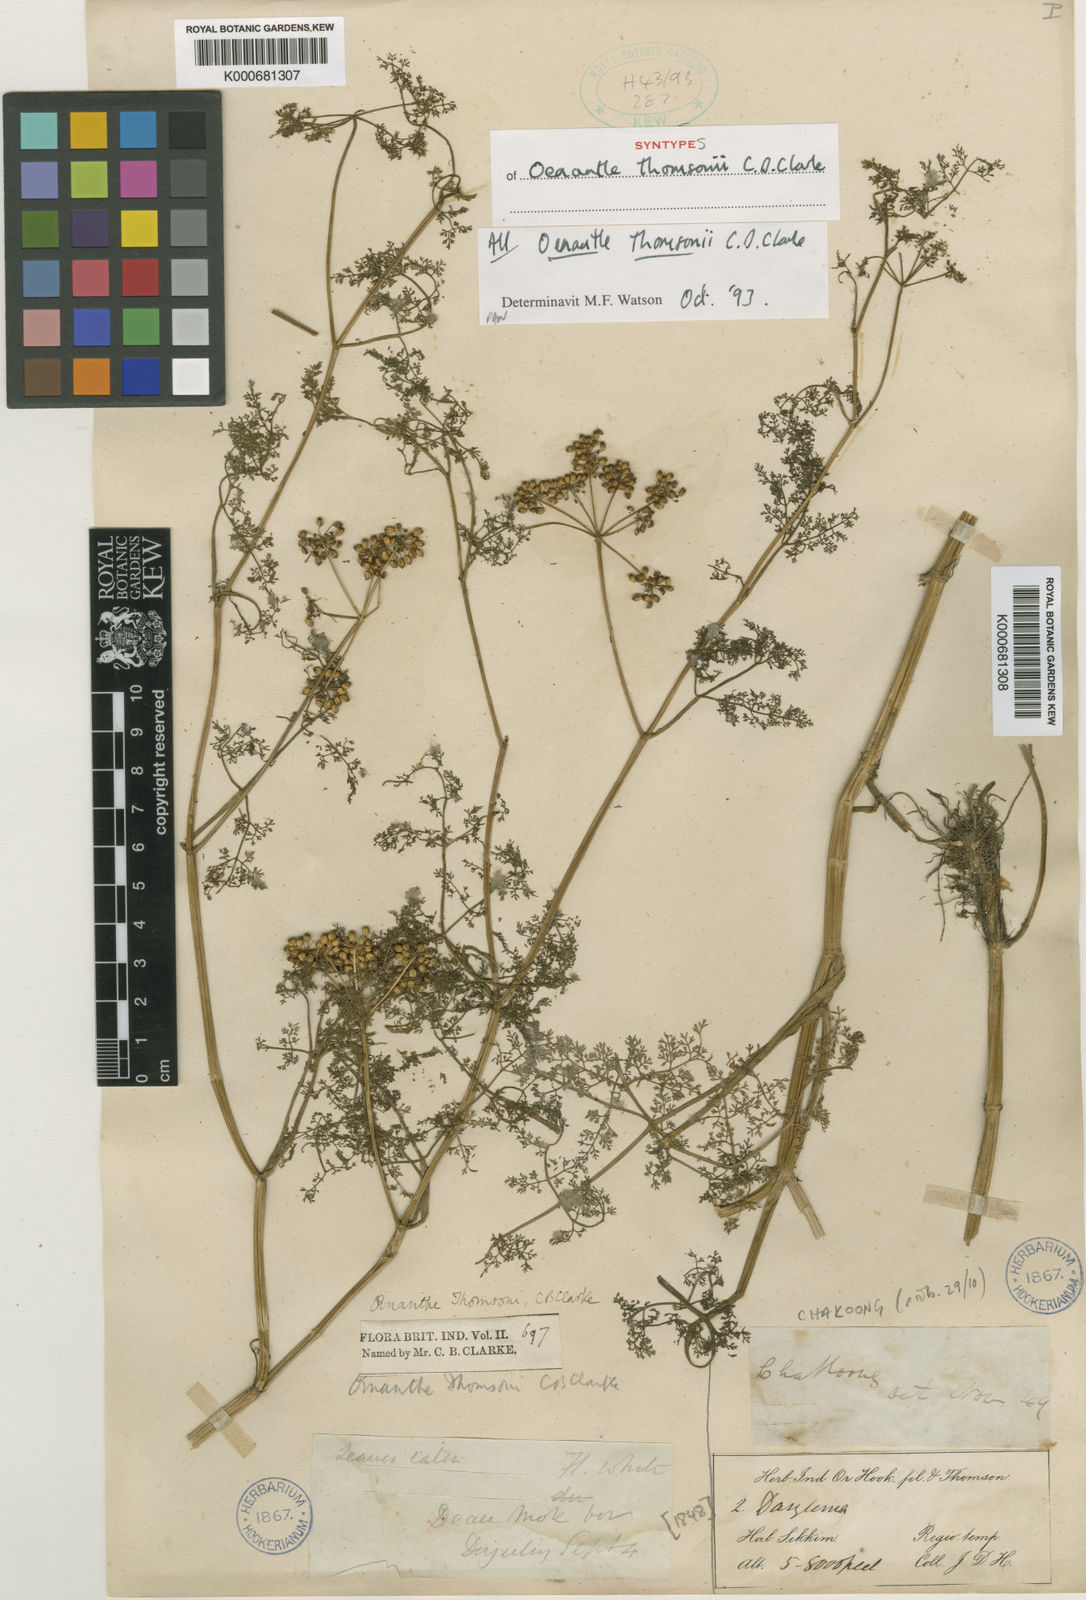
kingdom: Plantae
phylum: Tracheophyta
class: Magnoliopsida
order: Apiales
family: Apiaceae
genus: Oenanthe
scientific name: Oenanthe thomsonii
